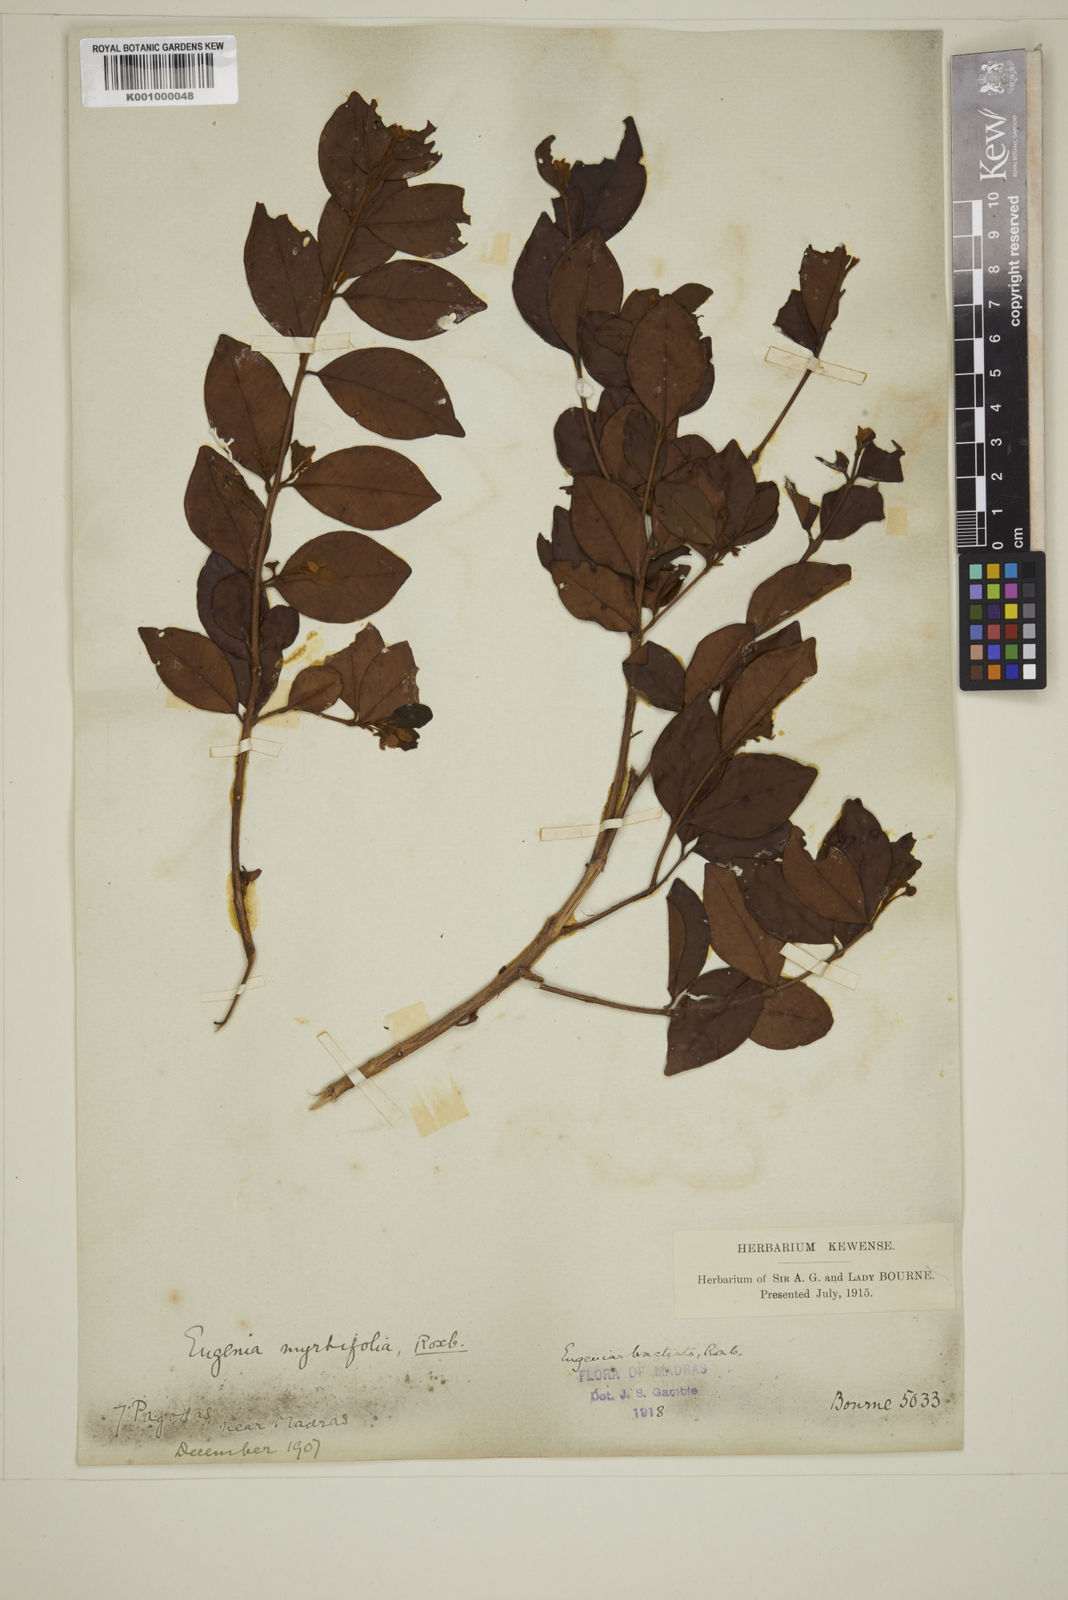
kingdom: Plantae
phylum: Tracheophyta
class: Magnoliopsida
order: Myrtales
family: Myrtaceae
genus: Myrcia
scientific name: Myrcia bracteata
